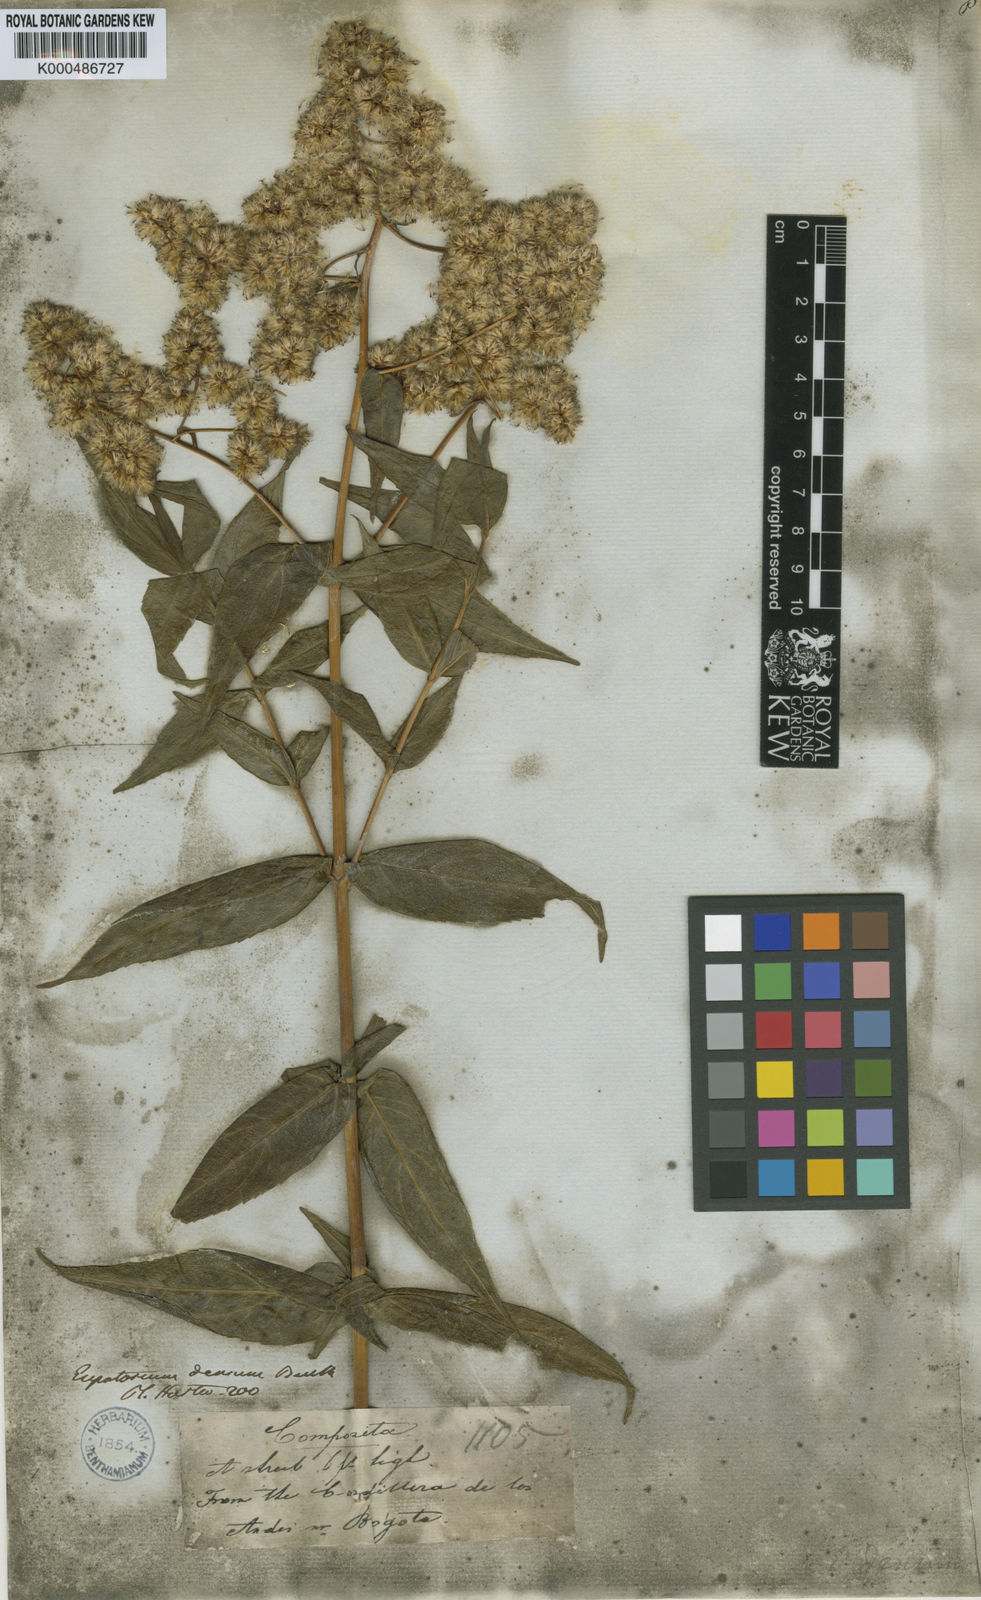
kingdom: Plantae
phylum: Tracheophyta
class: Magnoliopsida
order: Asterales
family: Asteraceae
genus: Asplundianthus
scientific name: Asplundianthus densus
